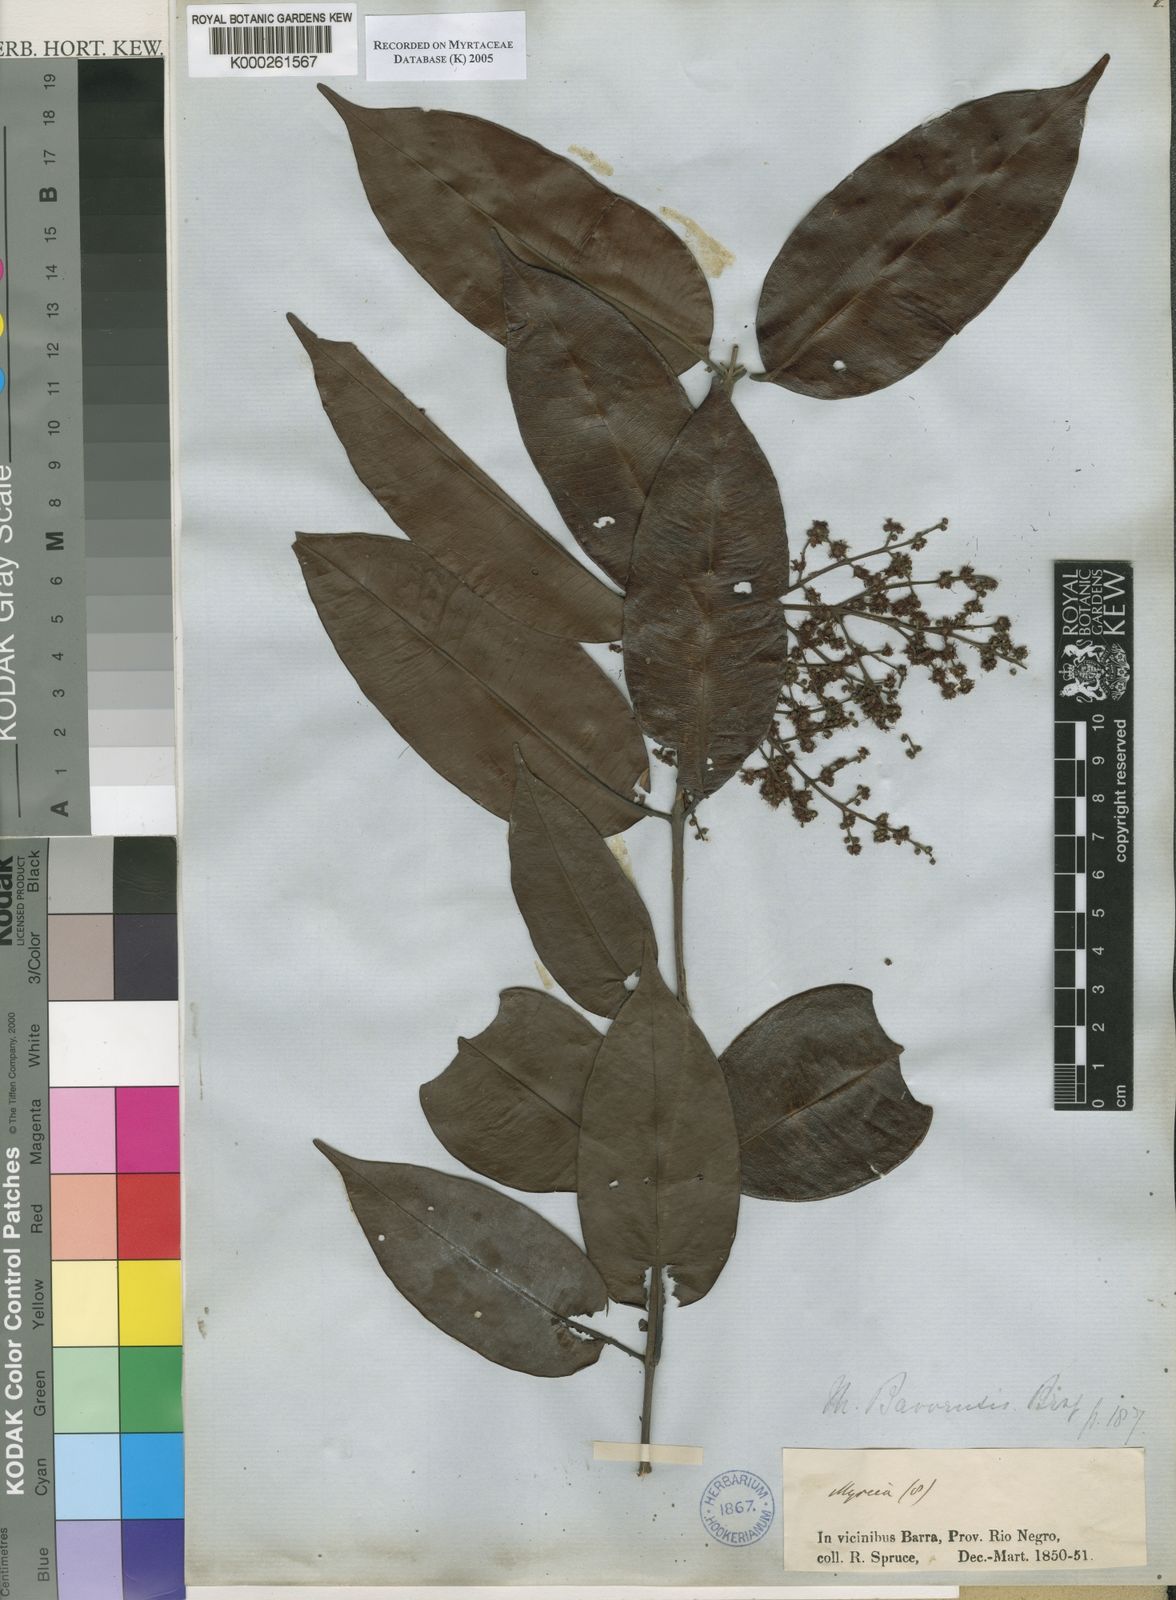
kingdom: Plantae
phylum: Tracheophyta
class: Magnoliopsida
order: Myrtales
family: Myrtaceae
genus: Myrcia
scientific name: Myrcia splendens
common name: Surinam cherry
